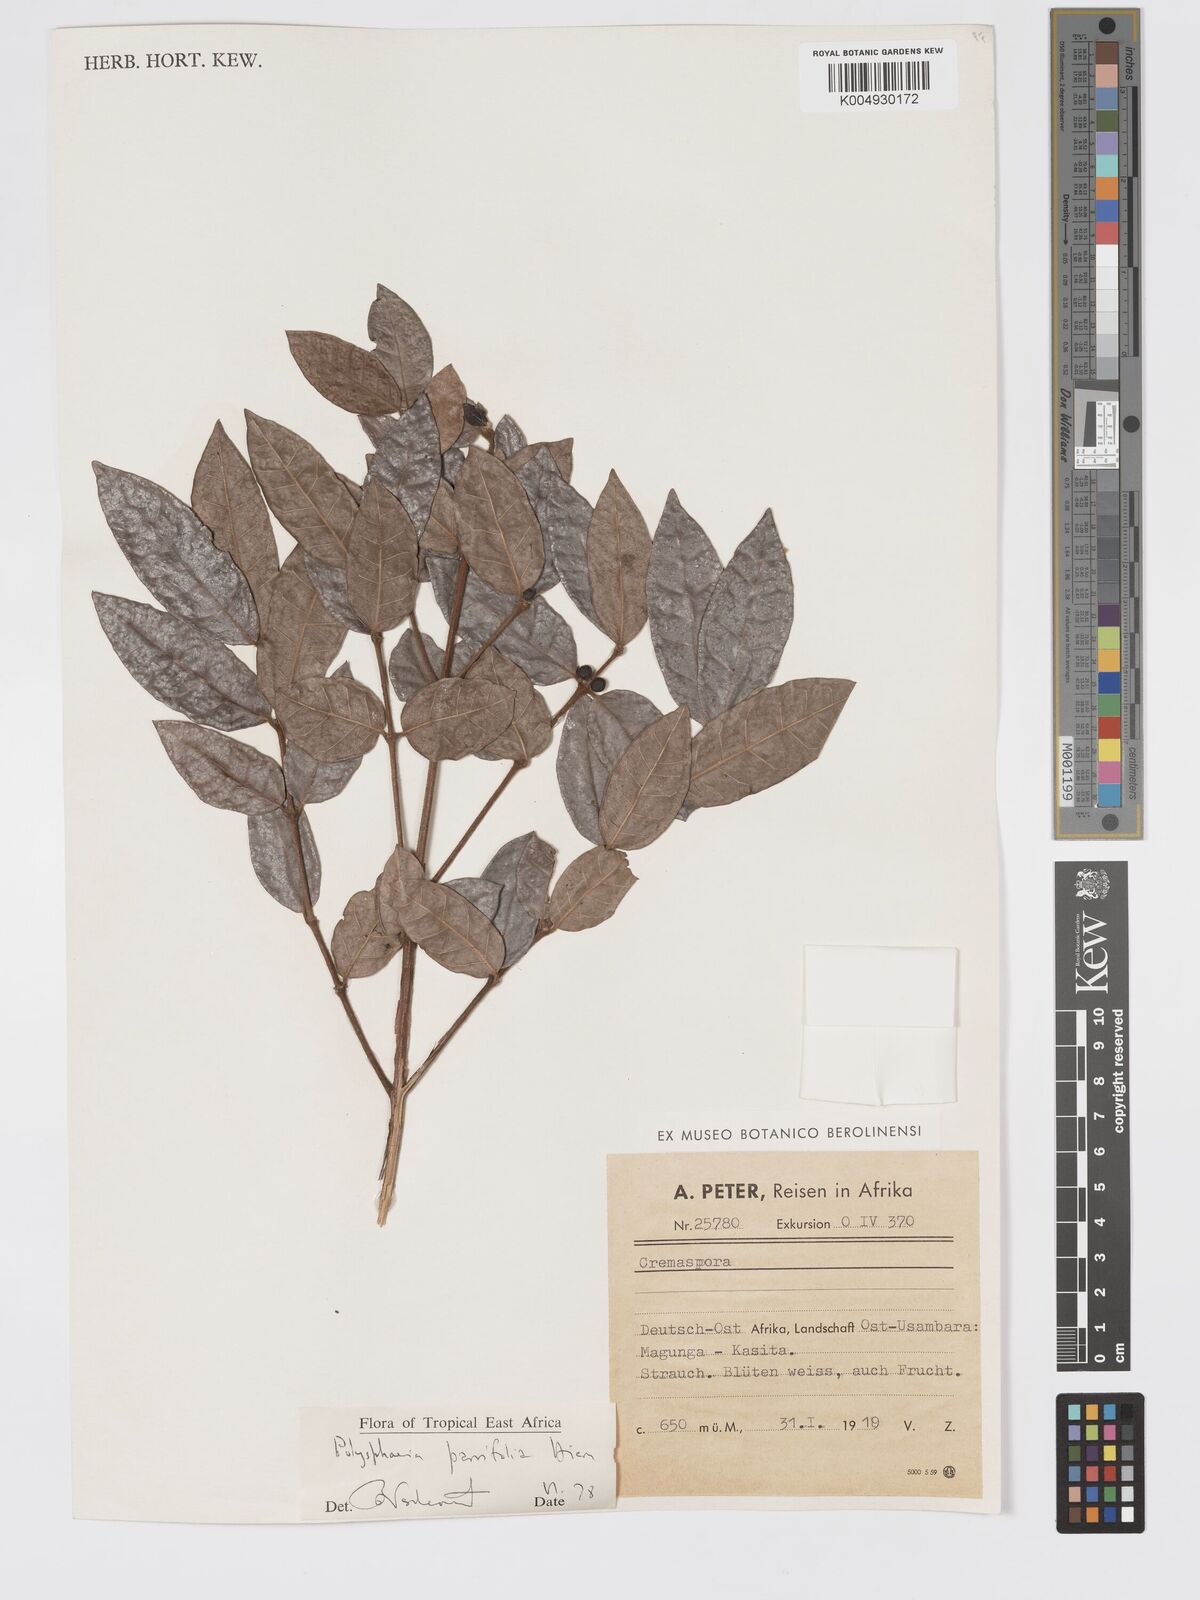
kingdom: Plantae
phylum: Tracheophyta
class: Magnoliopsida
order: Gentianales
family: Rubiaceae
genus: Polysphaeria
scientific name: Polysphaeria parvifolia
